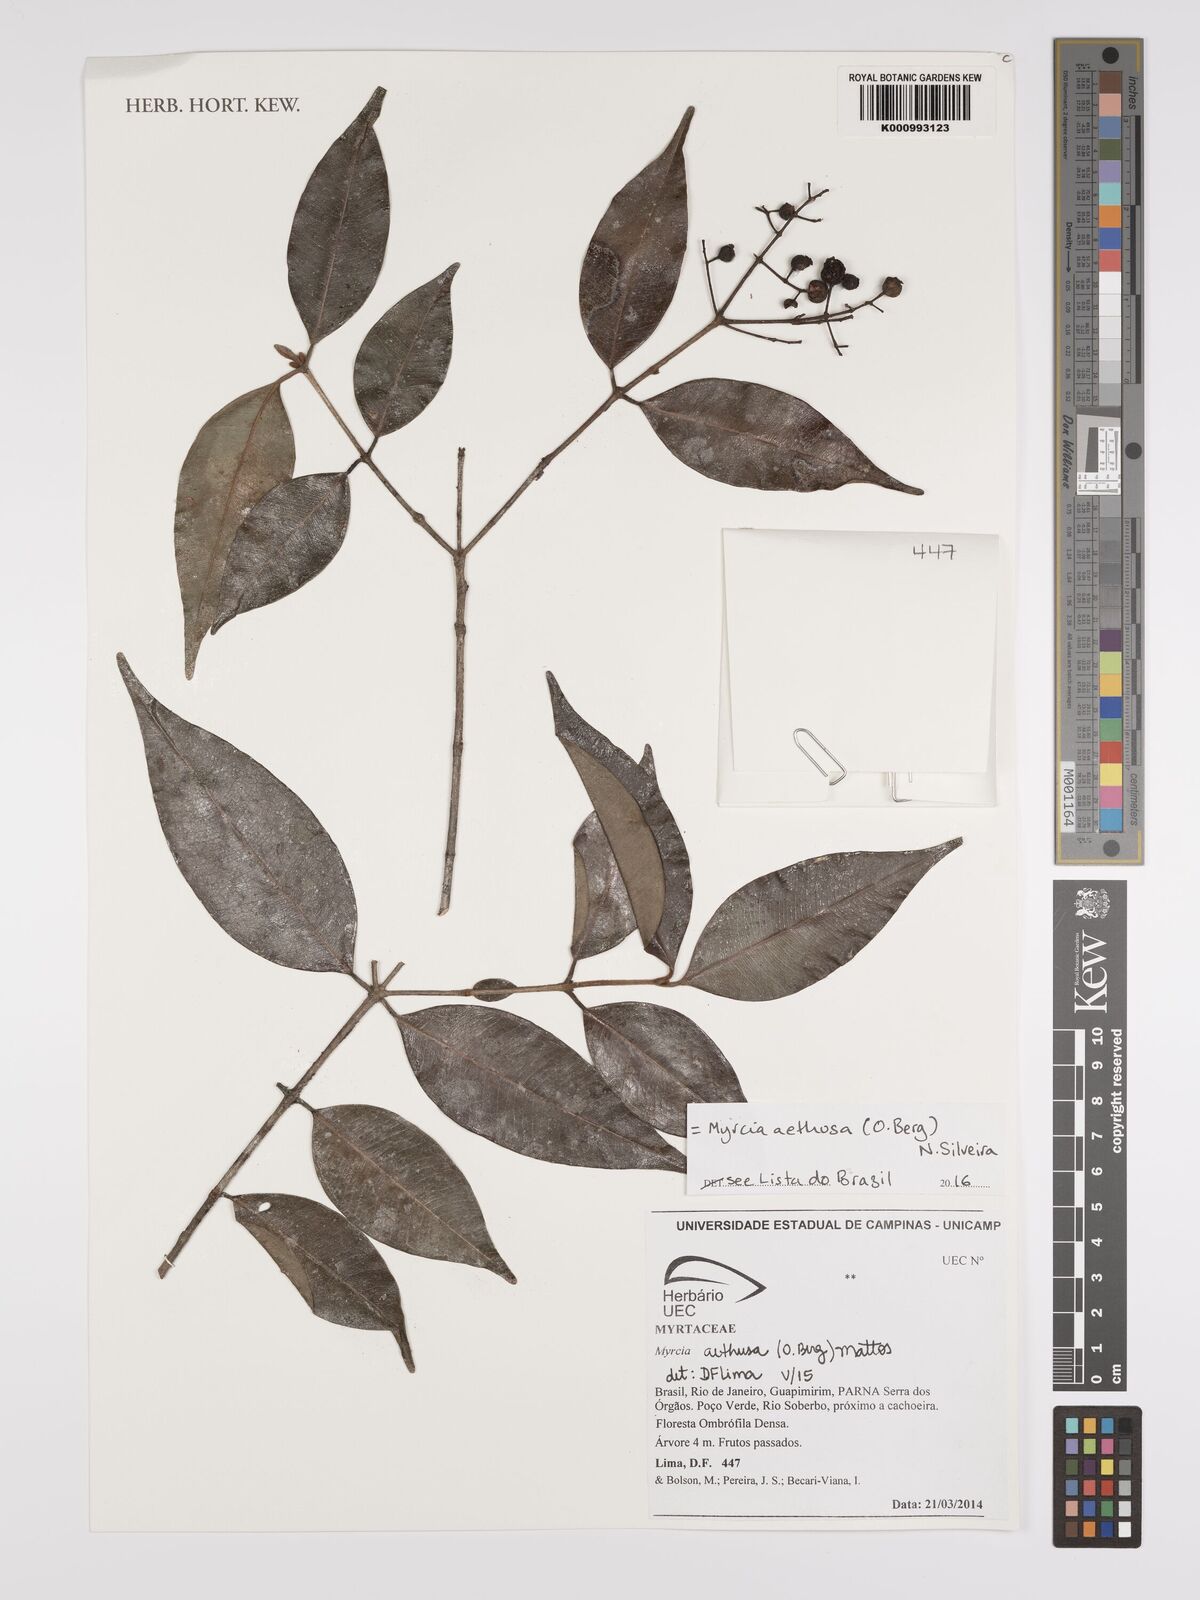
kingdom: Plantae
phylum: Tracheophyta
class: Magnoliopsida
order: Myrtales
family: Myrtaceae
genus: Myrcia
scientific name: Myrcia aethusa
